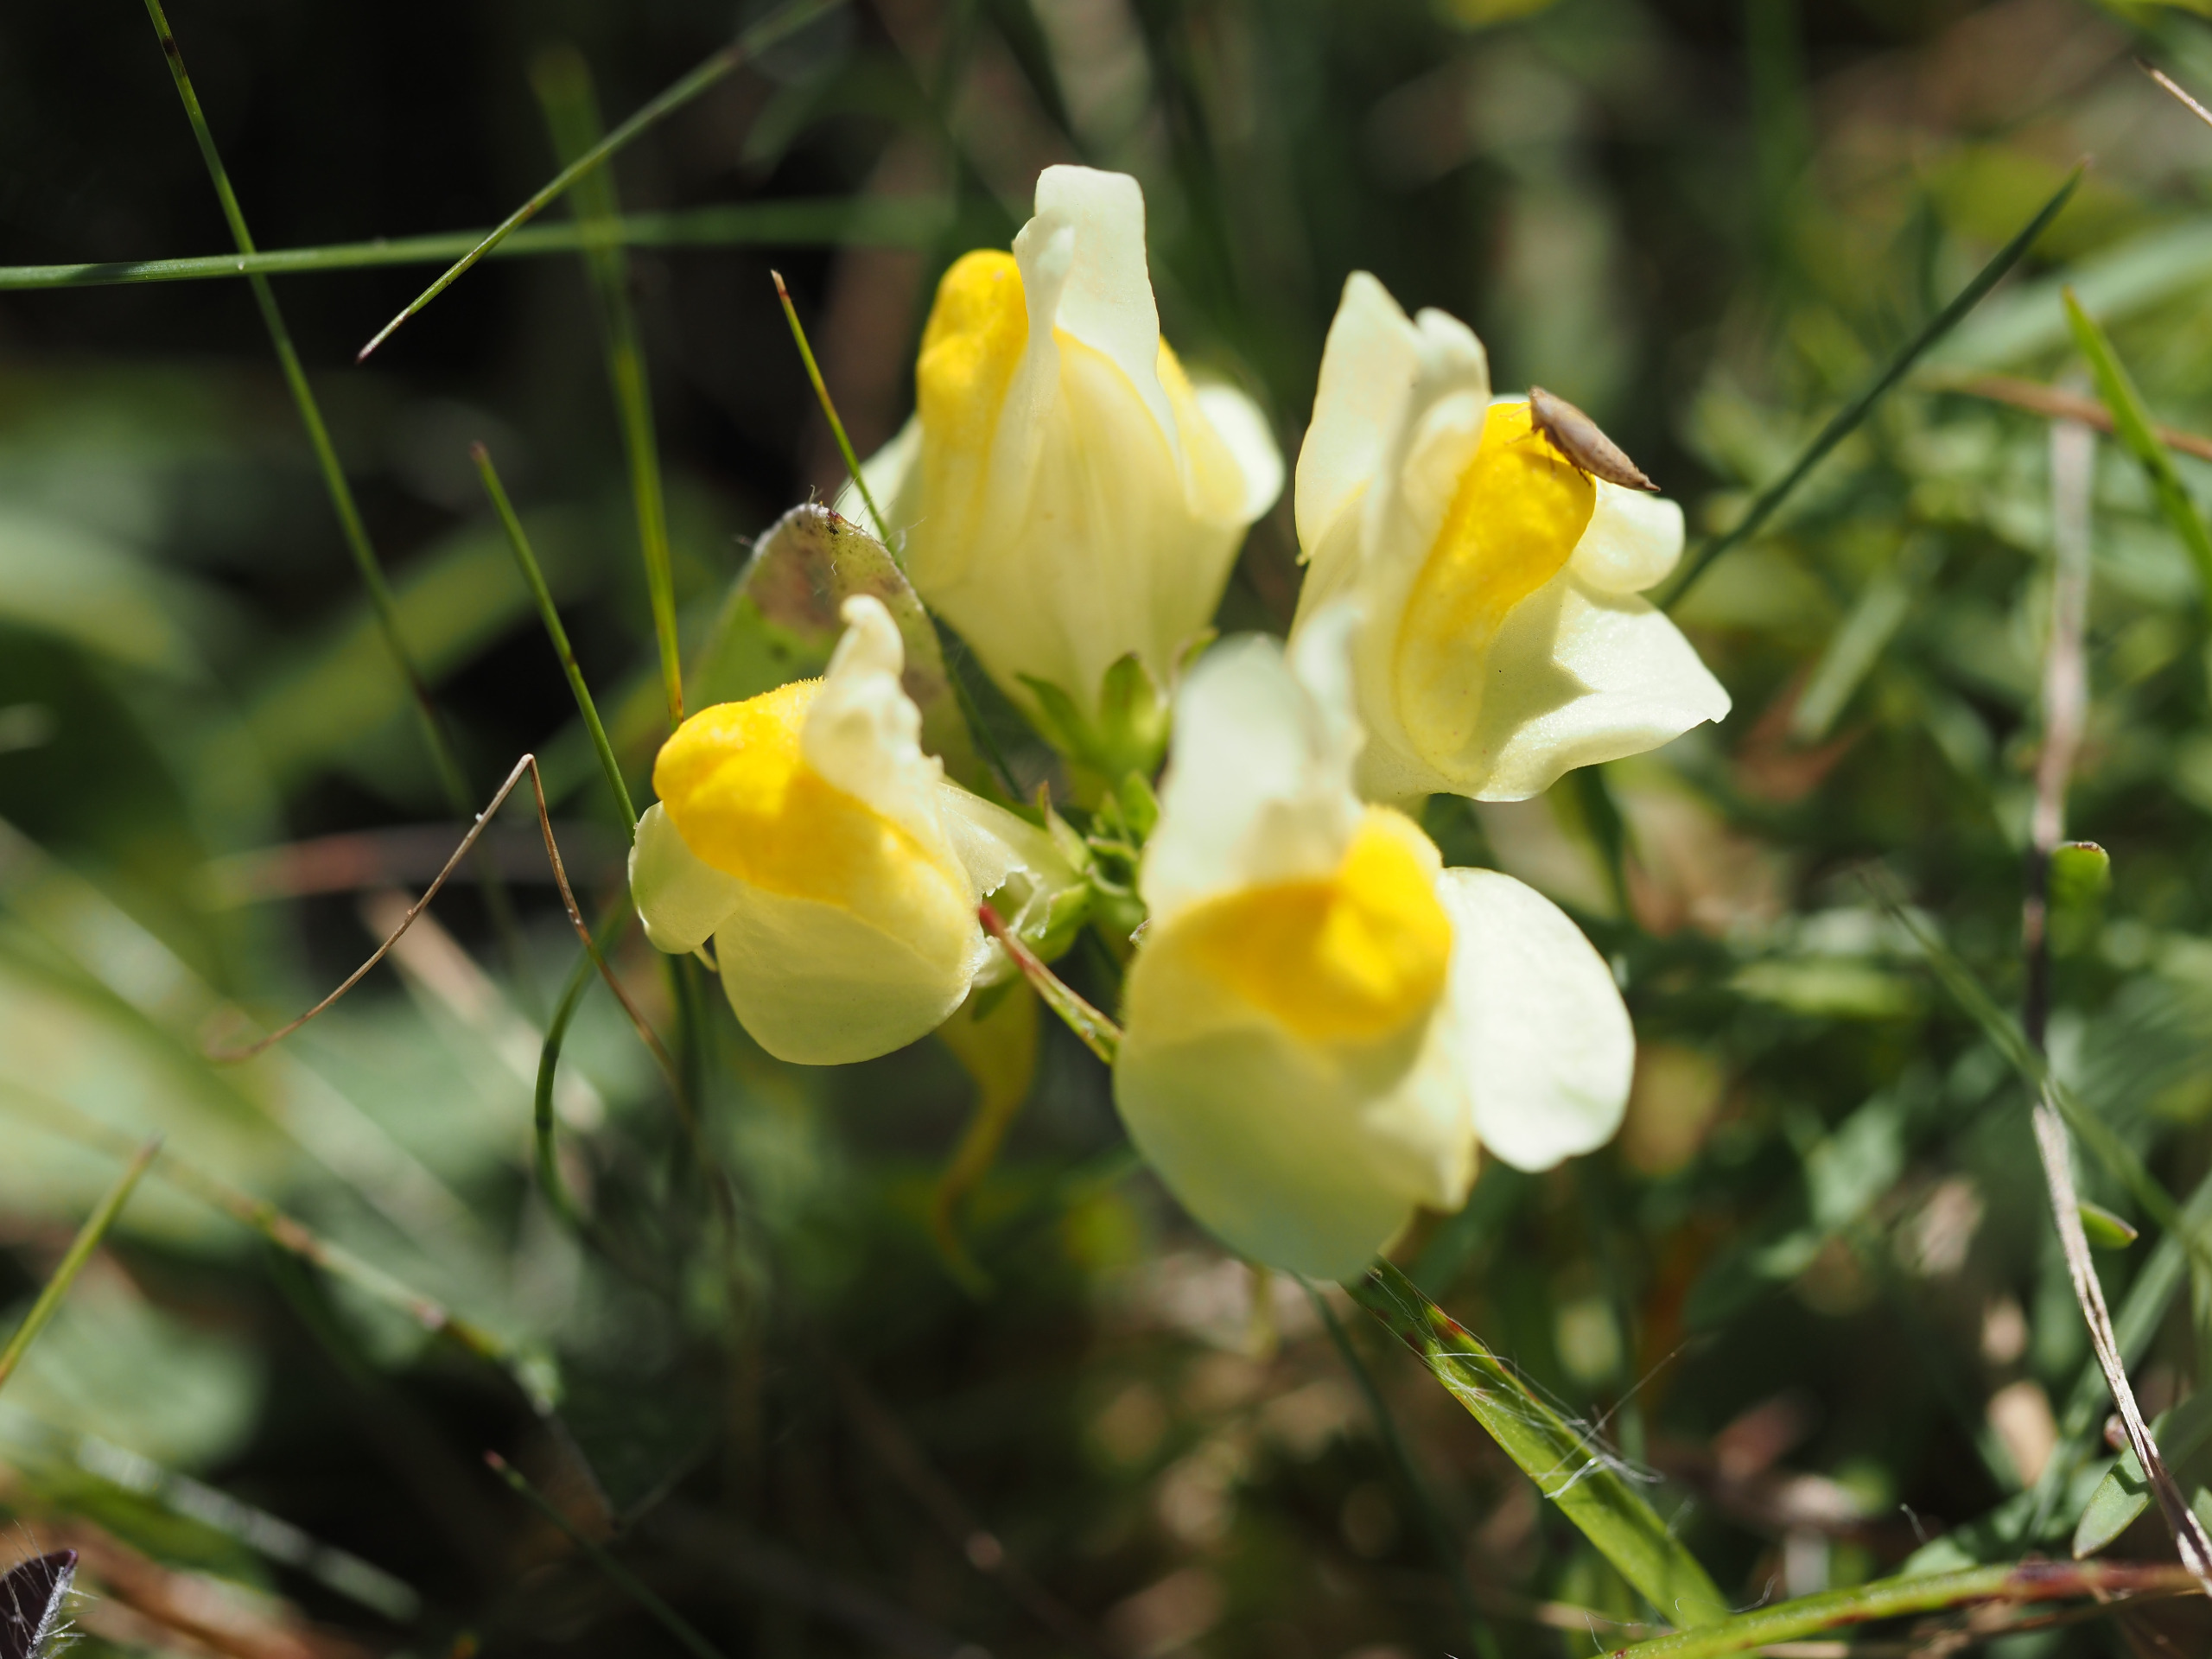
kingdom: Plantae
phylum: Tracheophyta
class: Magnoliopsida
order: Lamiales
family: Plantaginaceae
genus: Linaria
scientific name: Linaria vulgaris
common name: Almindelig torskemund
